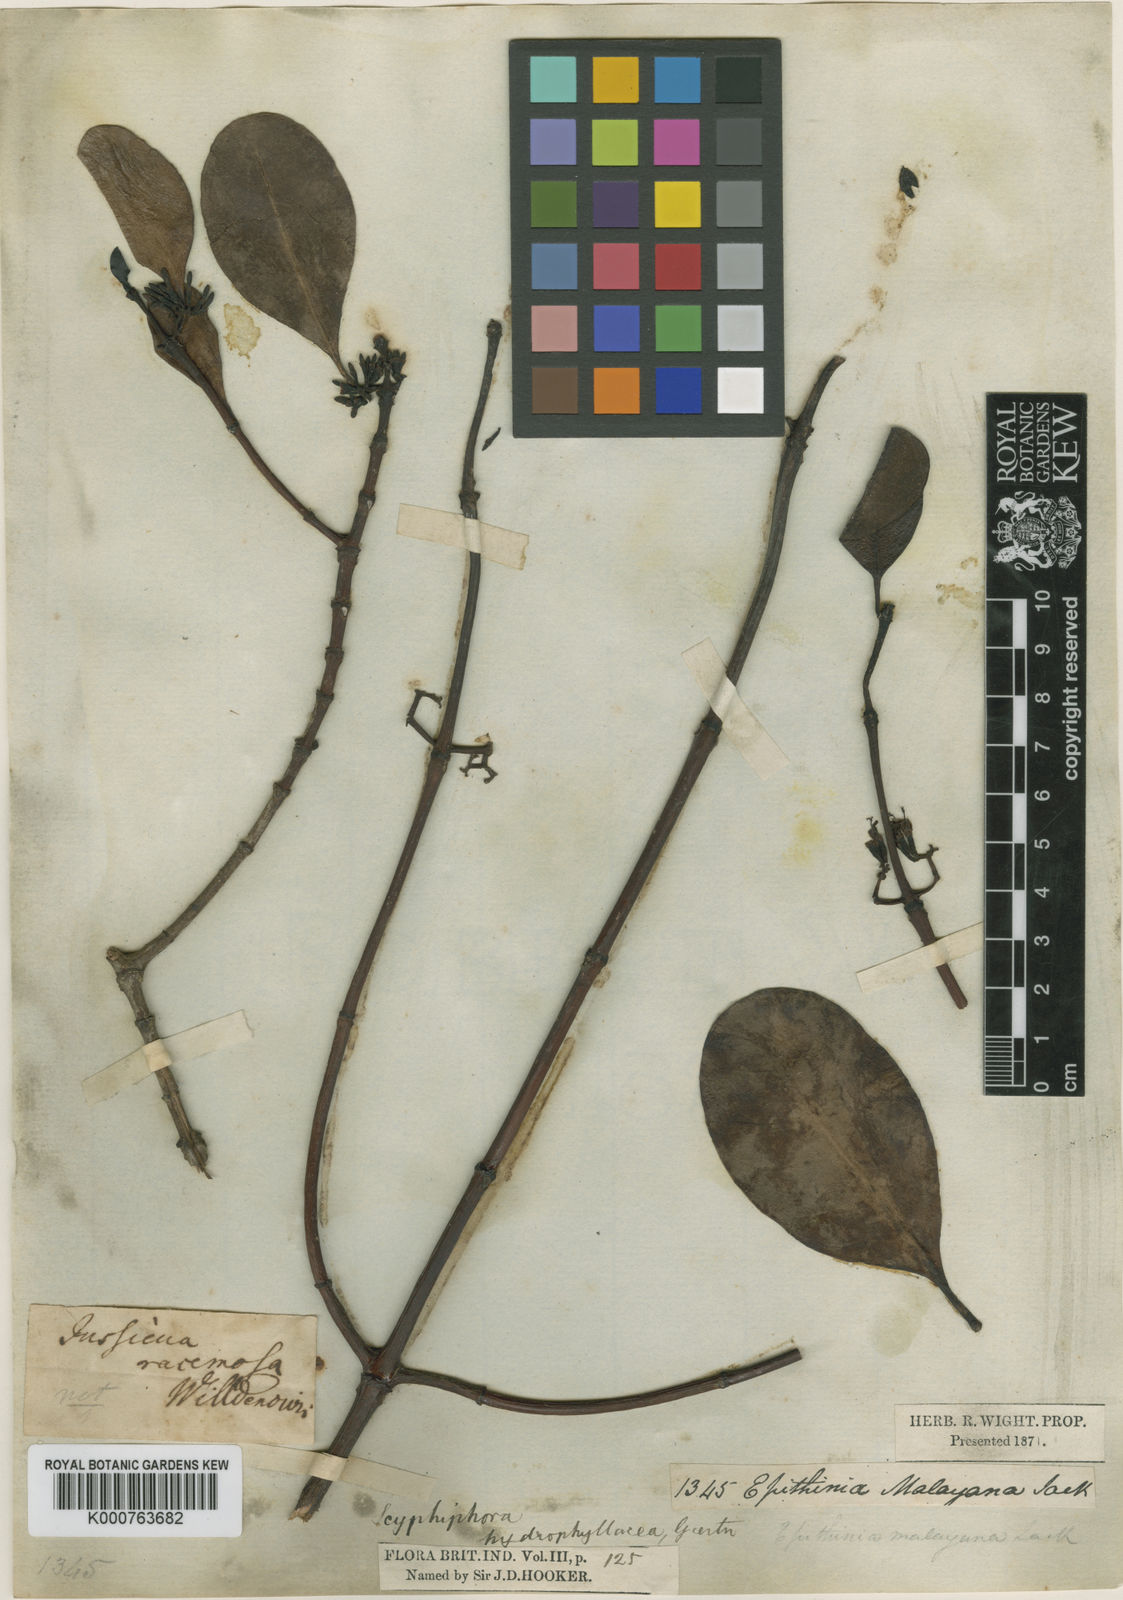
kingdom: Plantae
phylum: Tracheophyta
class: Magnoliopsida
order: Gentianales
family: Rubiaceae
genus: Scyphiphora
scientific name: Scyphiphora
